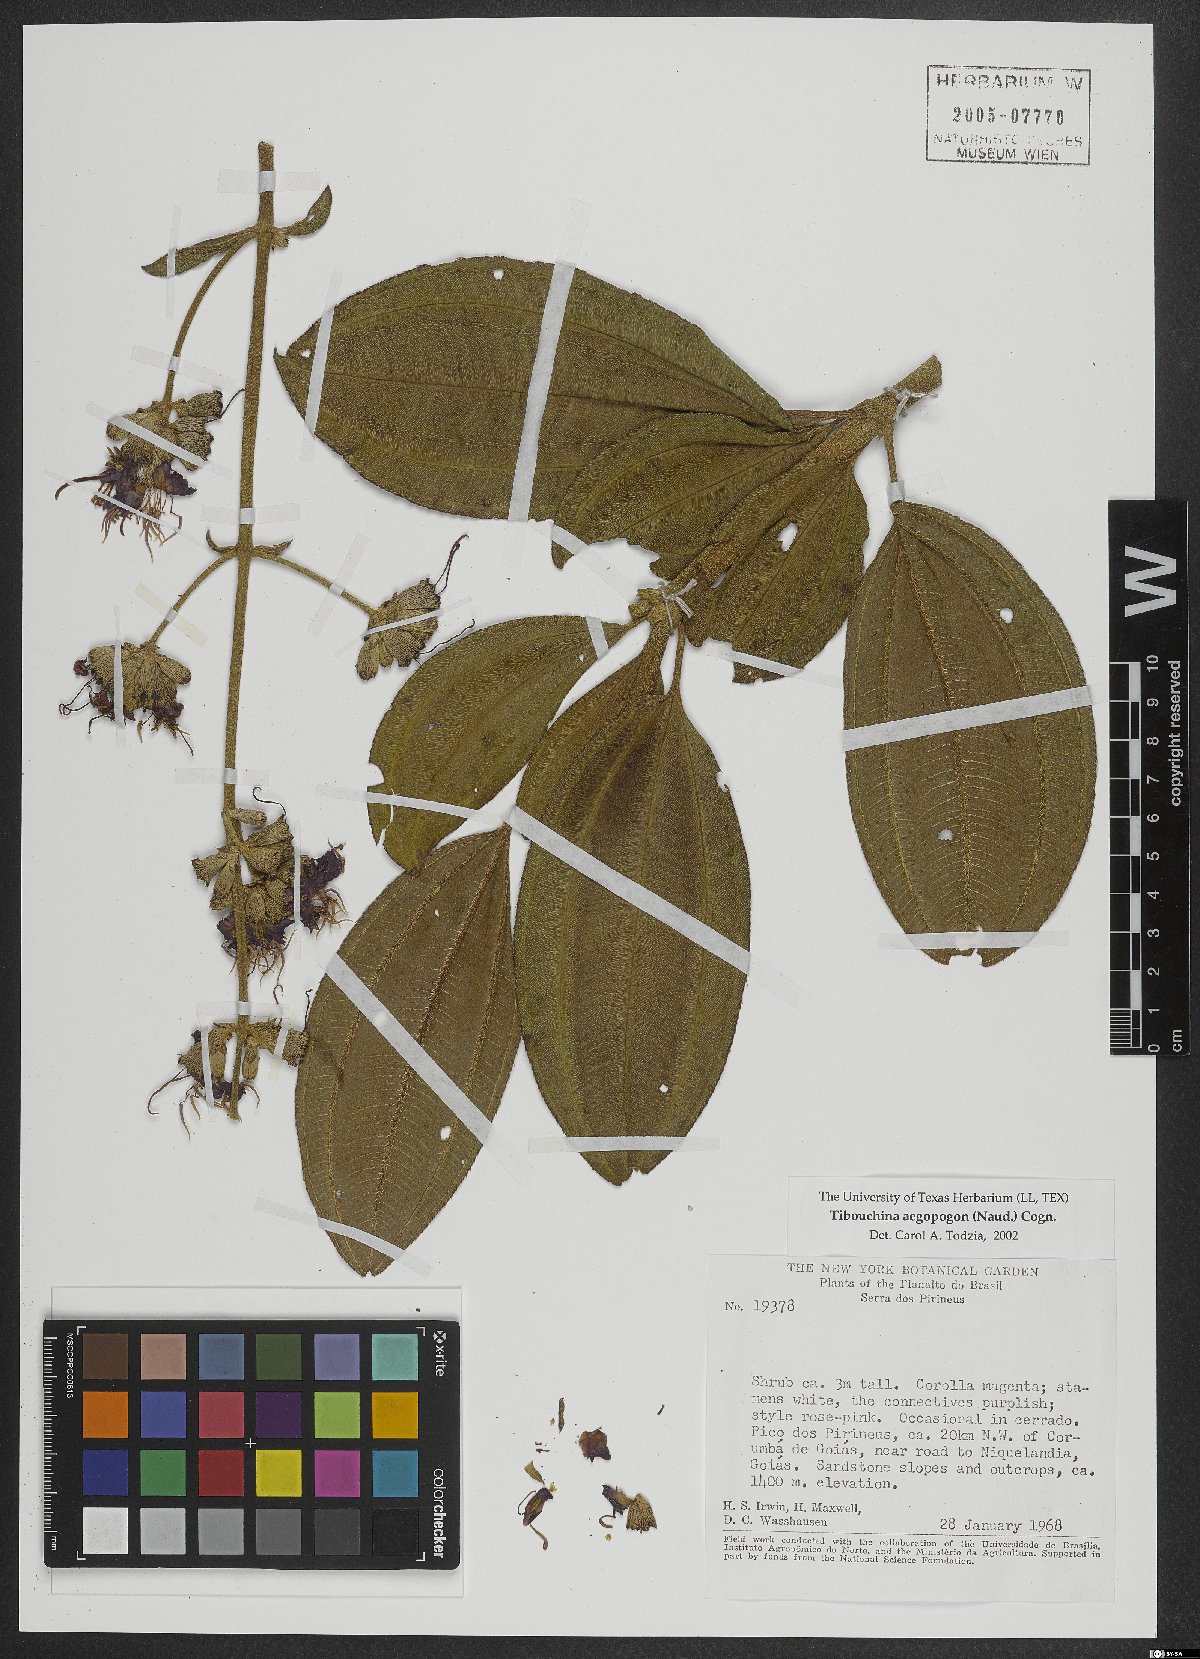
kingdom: Plantae
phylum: Tracheophyta
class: Magnoliopsida
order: Myrtales
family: Melastomataceae
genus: Pleroma
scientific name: Pleroma aegopogon
